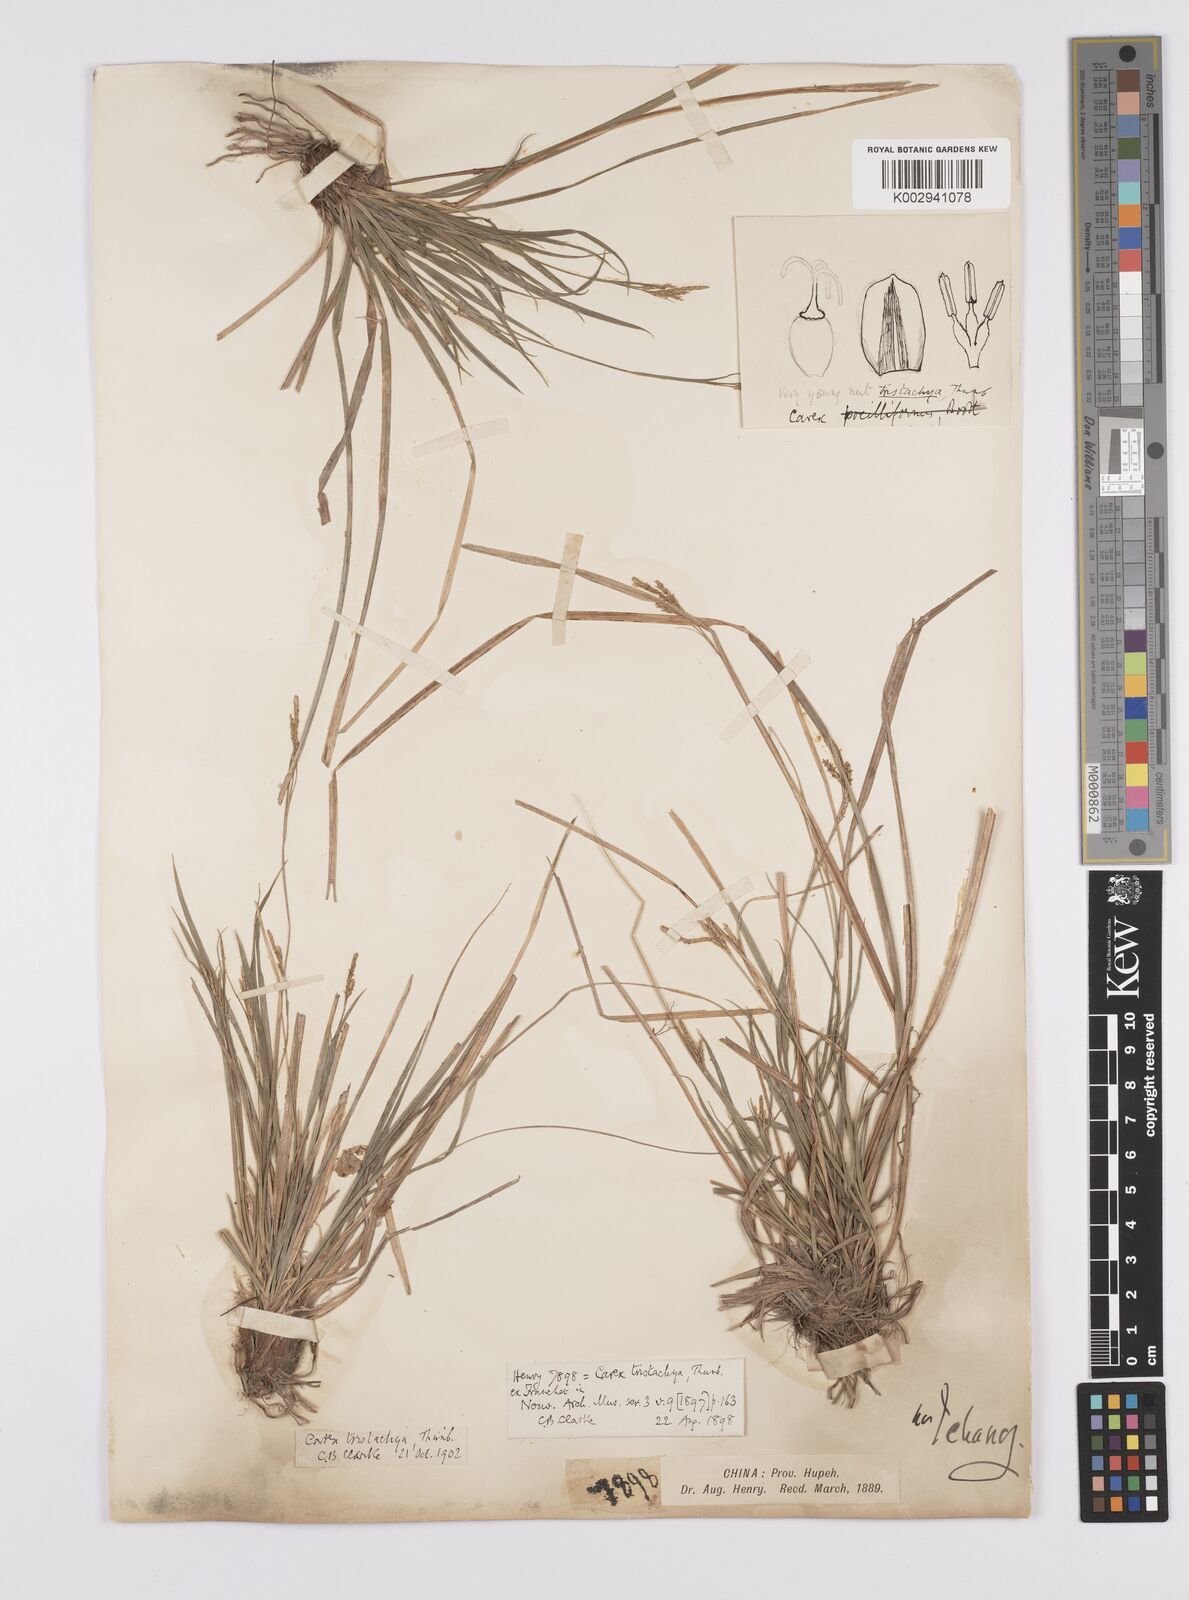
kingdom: Plantae
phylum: Tracheophyta
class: Liliopsida
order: Poales
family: Cyperaceae
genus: Carex
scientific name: Carex tristachya
